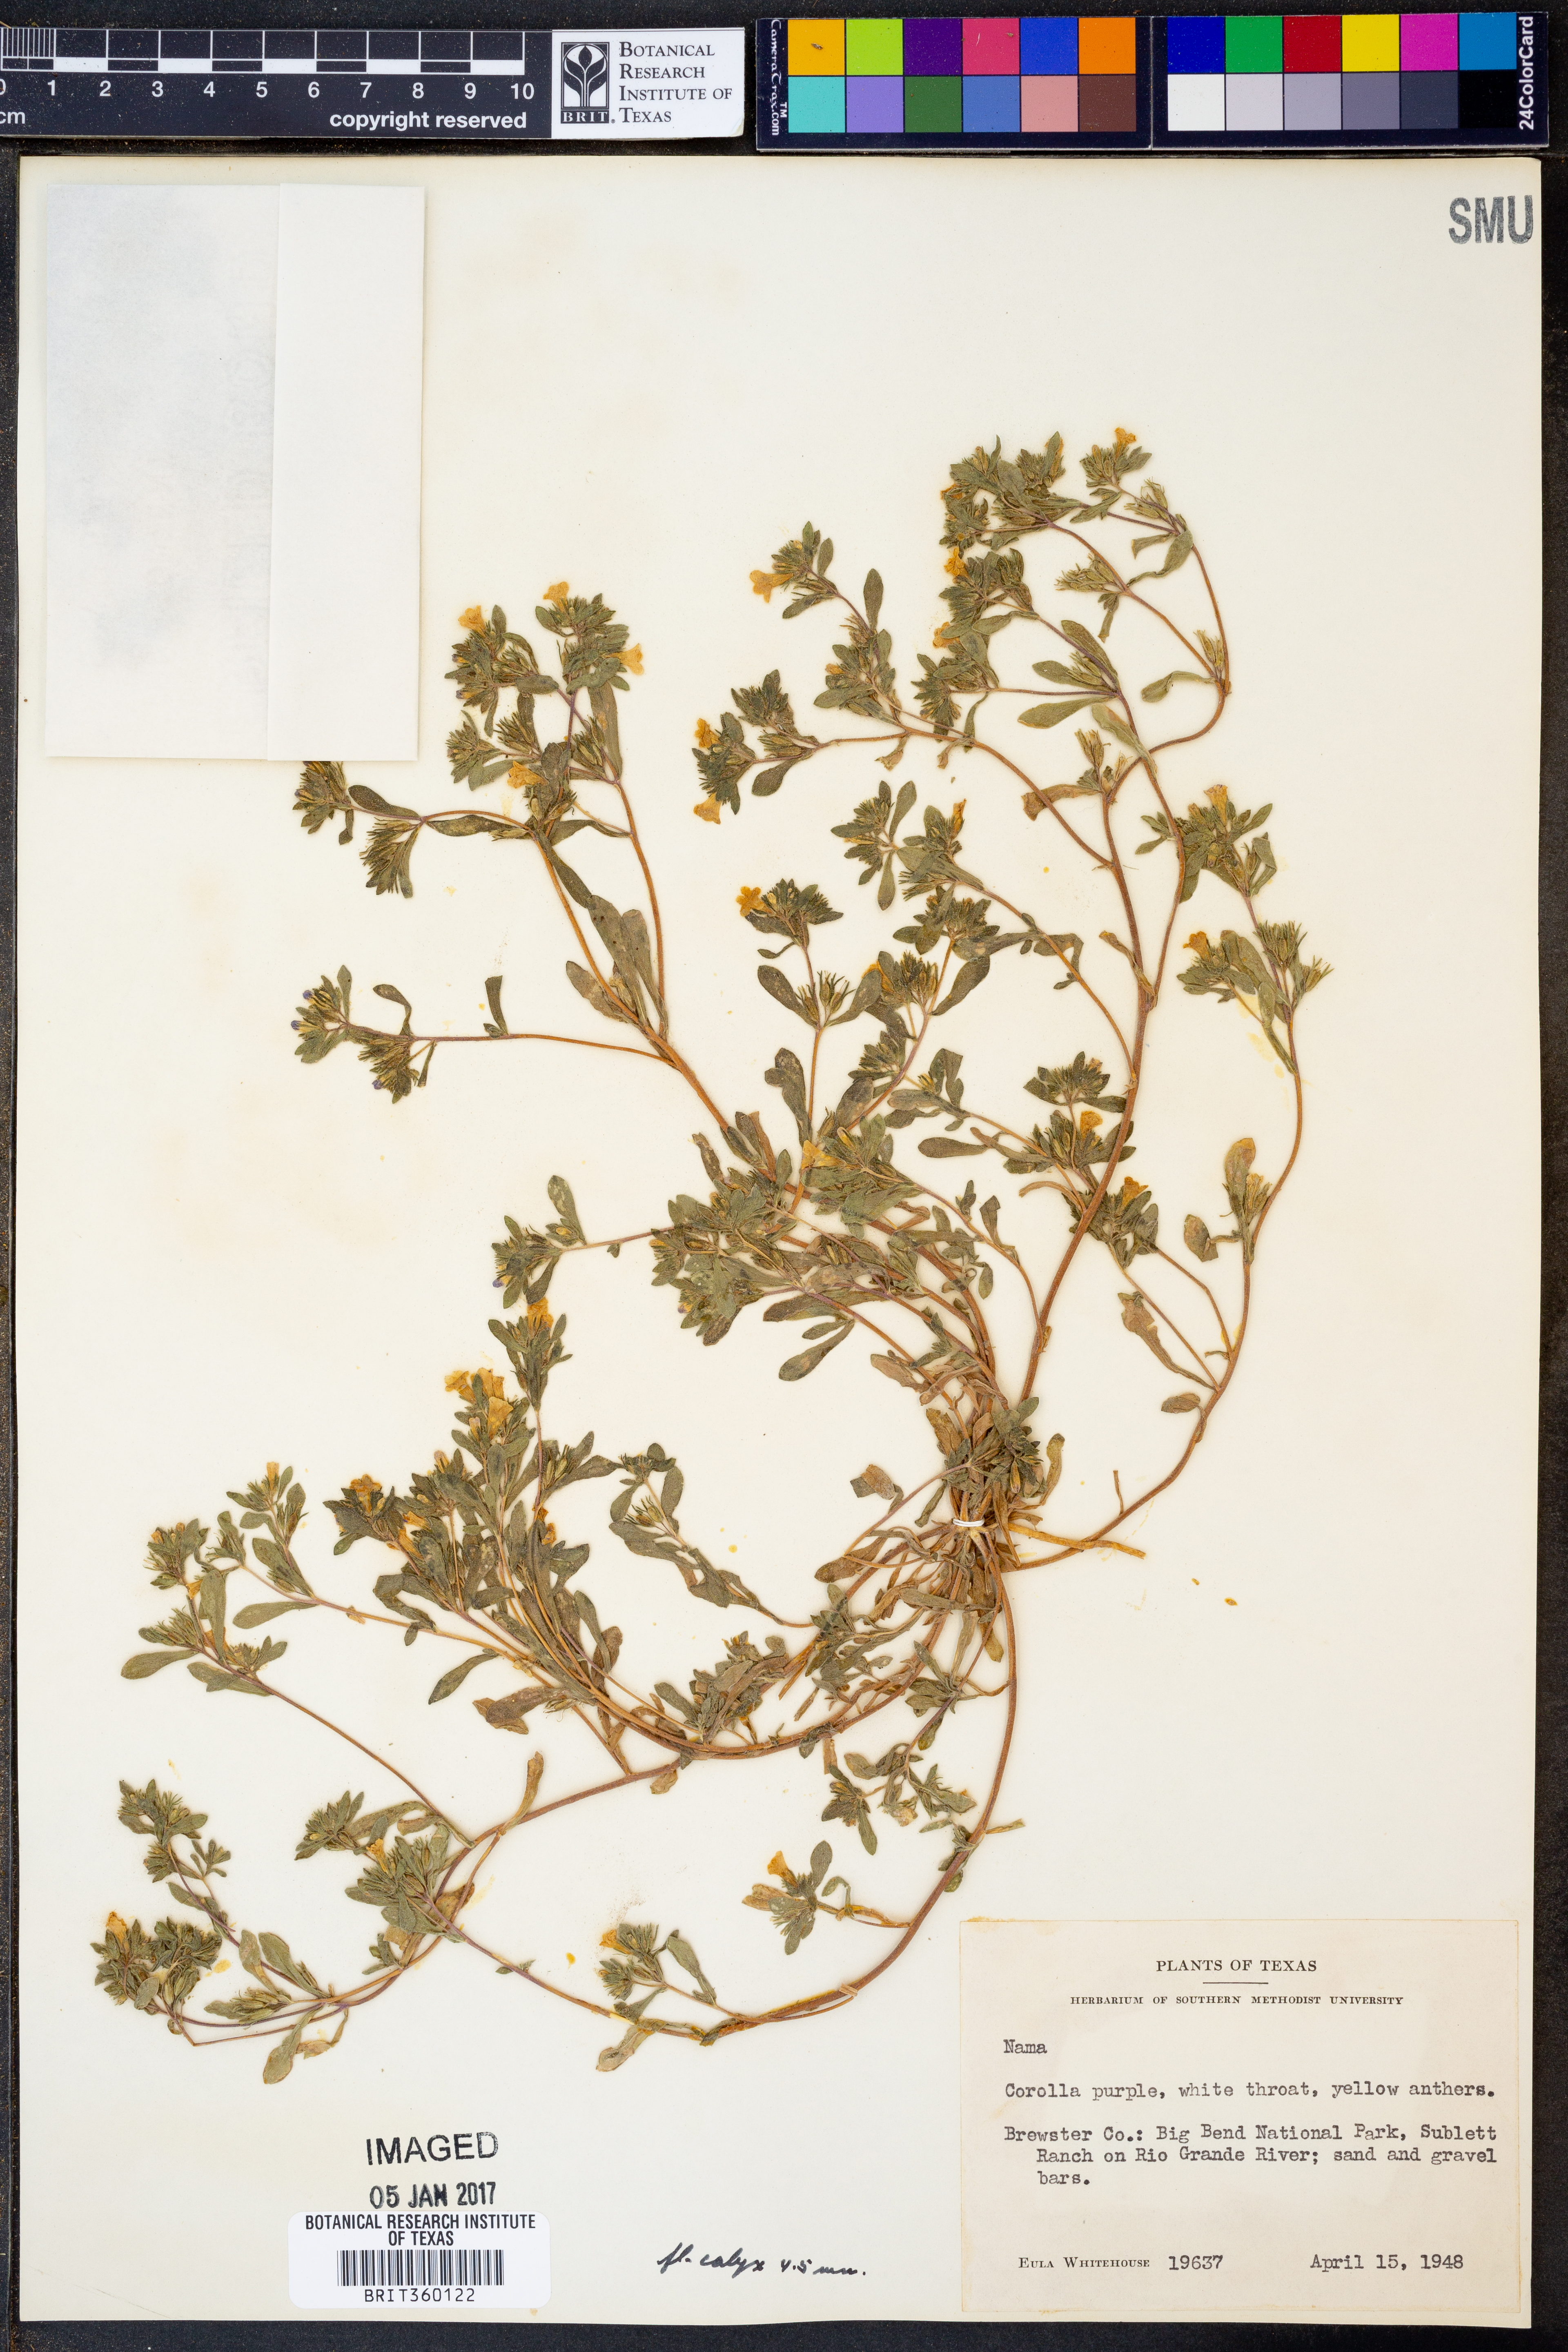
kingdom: Plantae
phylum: Tracheophyta
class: Magnoliopsida
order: Boraginales
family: Namaceae
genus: Nama
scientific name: Nama
